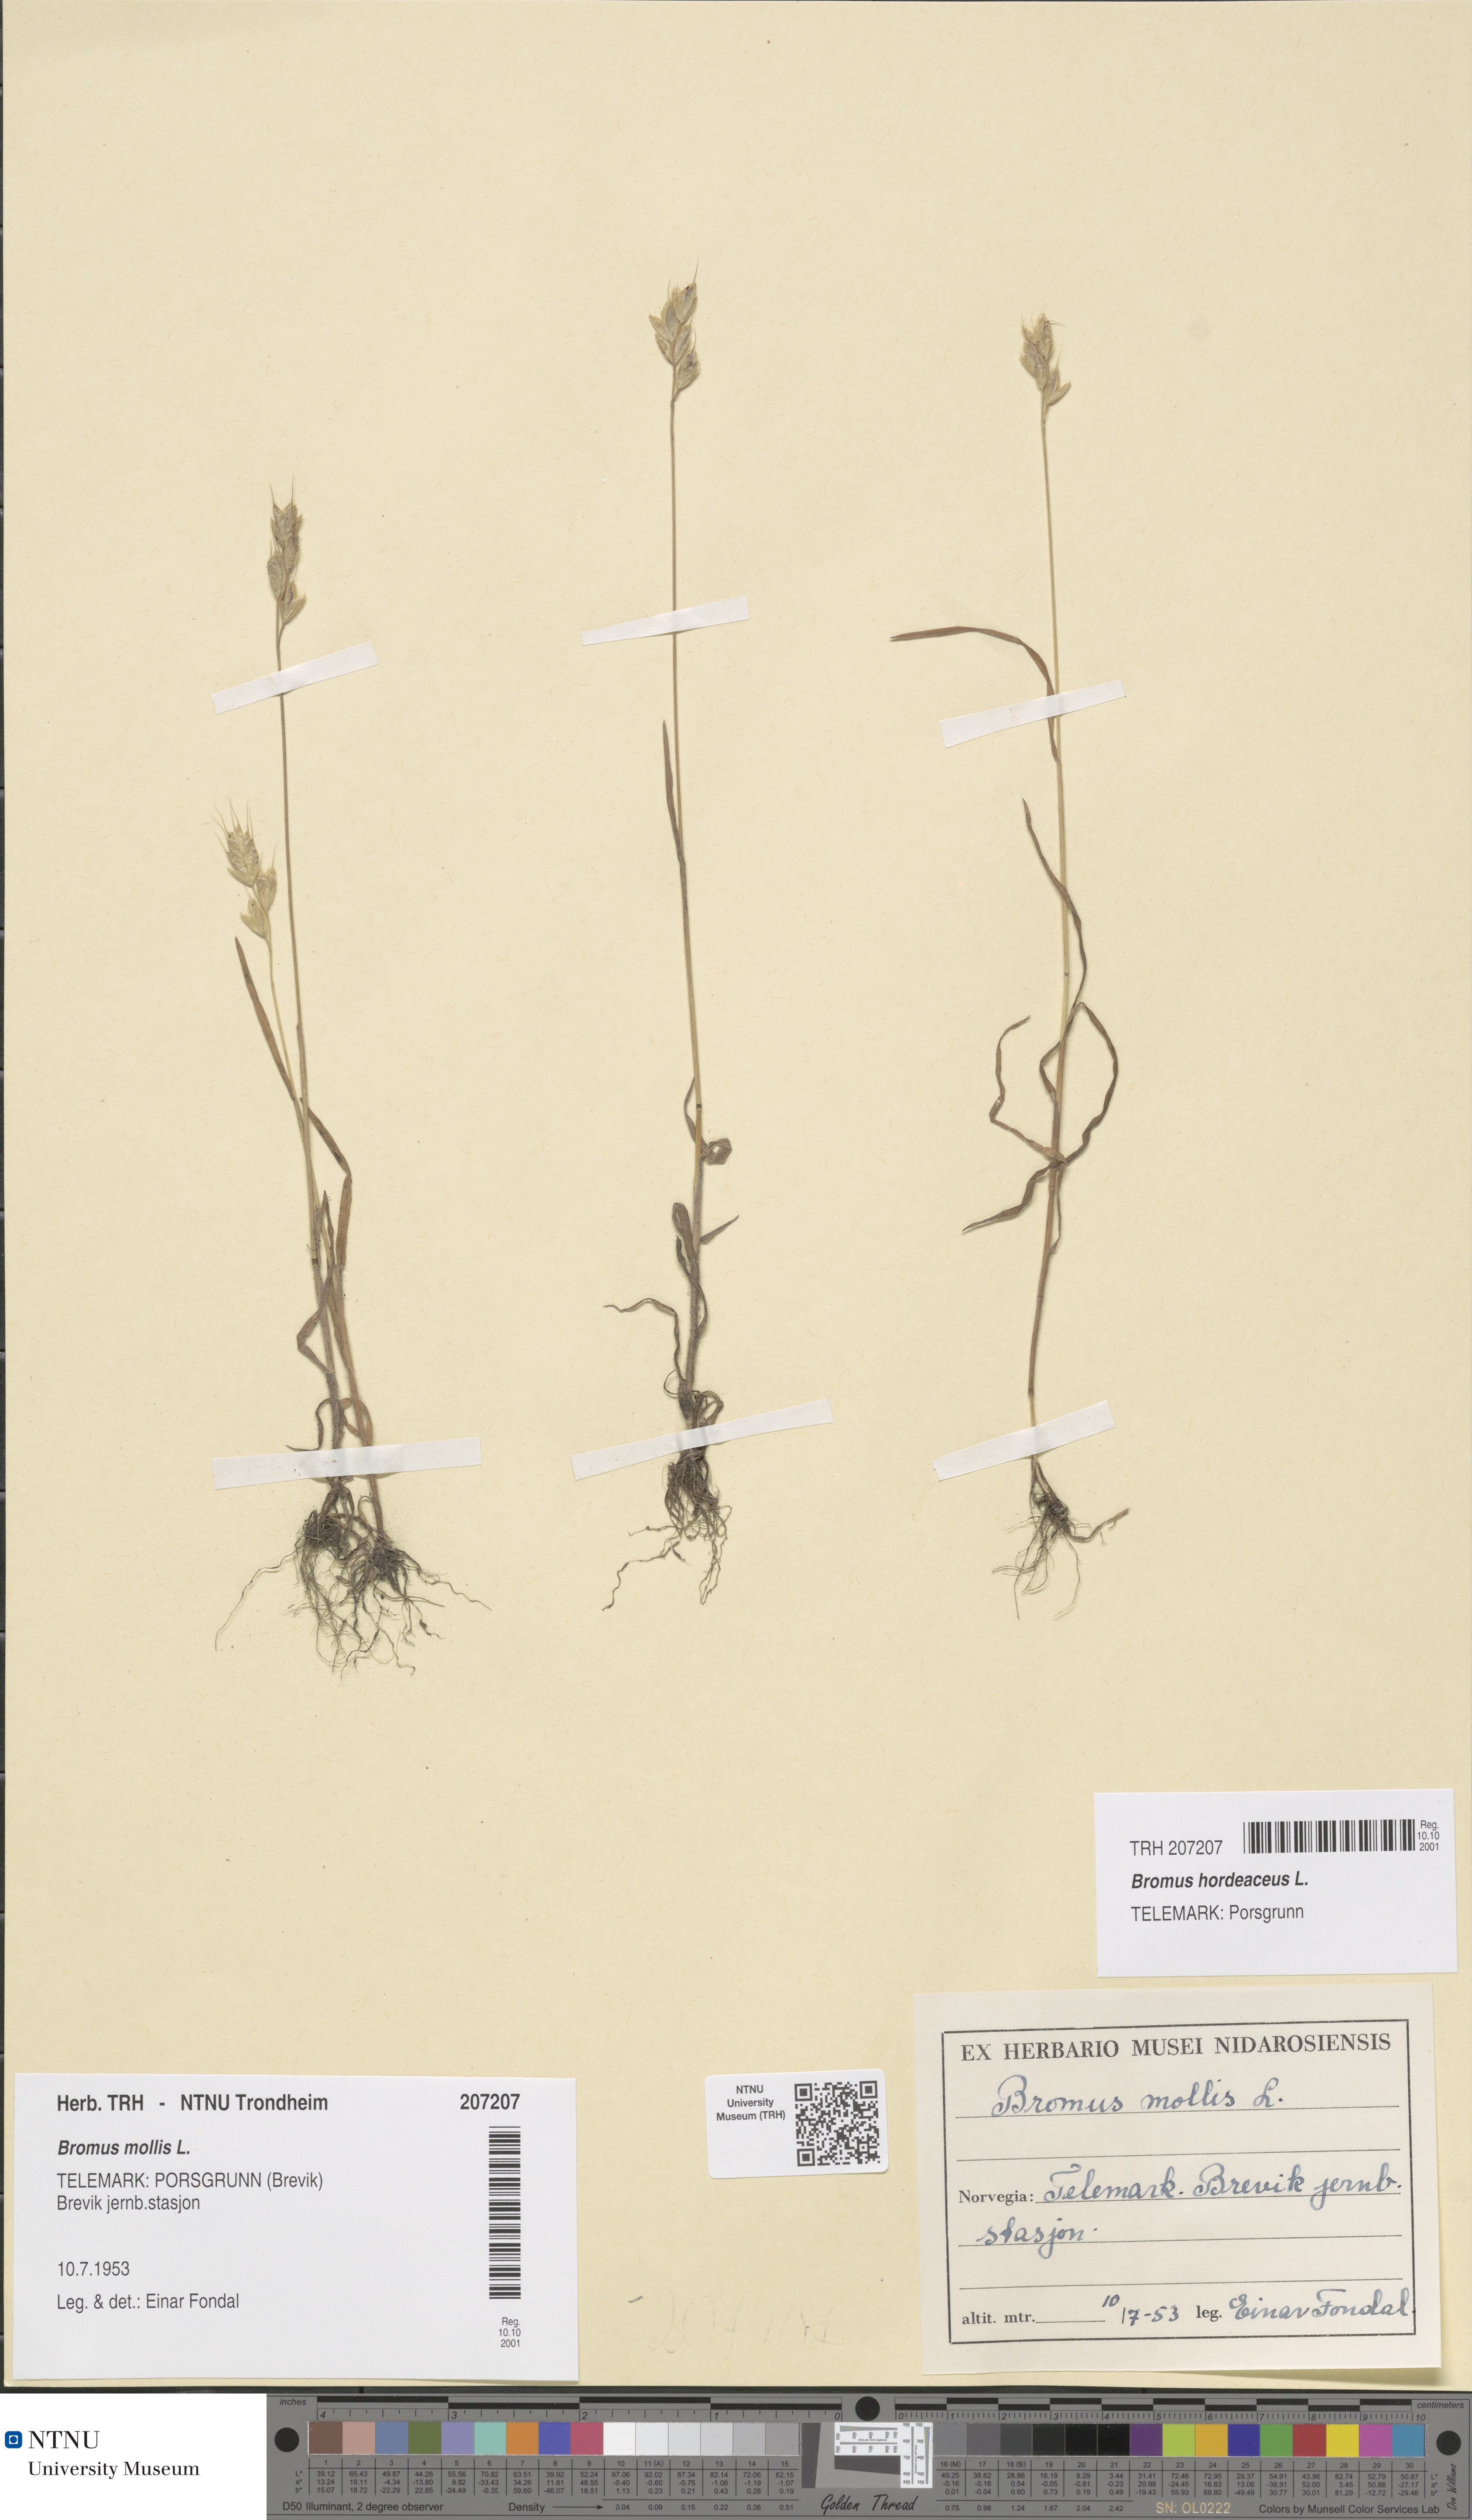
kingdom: Plantae
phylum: Tracheophyta
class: Liliopsida
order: Poales
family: Poaceae
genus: Bromus
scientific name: Bromus hordeaceus
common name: Soft brome
